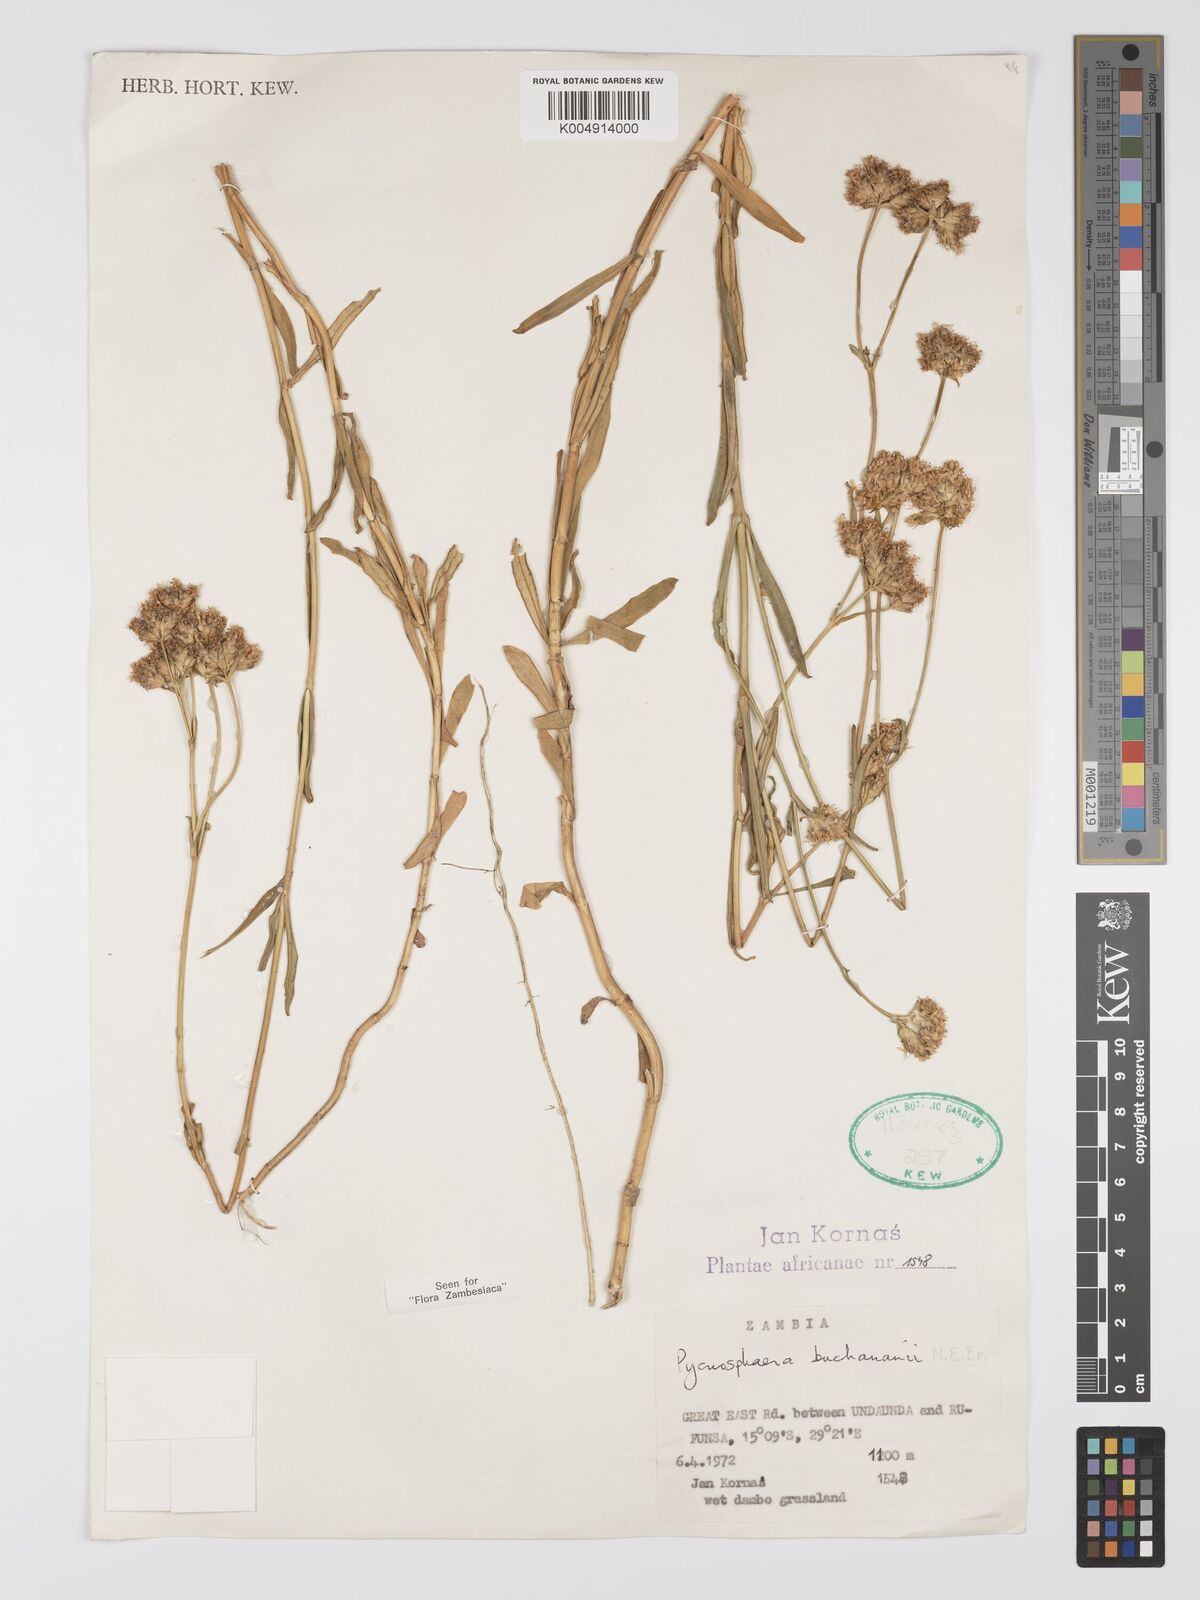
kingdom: Plantae
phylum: Tracheophyta
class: Magnoliopsida
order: Gentianales
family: Gentianaceae
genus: Pycnosphaera
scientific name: Pycnosphaera buchananii
